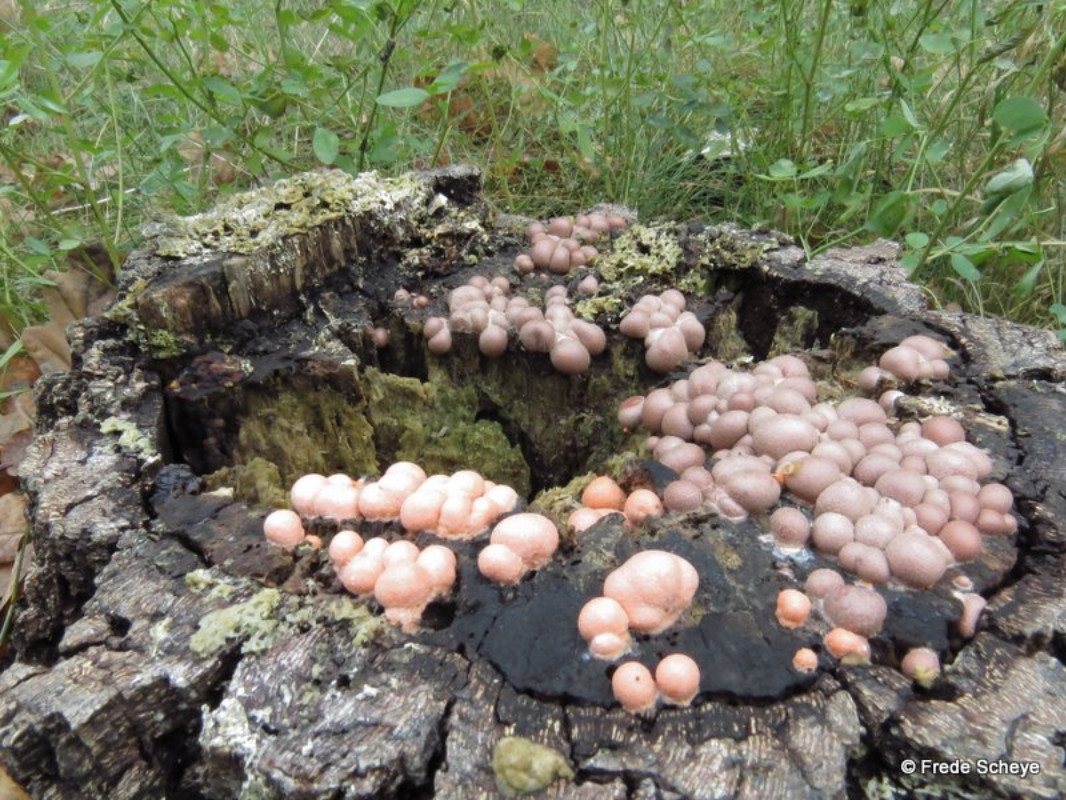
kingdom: Protozoa
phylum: Mycetozoa
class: Myxomycetes
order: Cribrariales
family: Tubiferaceae
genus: Lycogala
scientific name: Lycogala epidendrum
